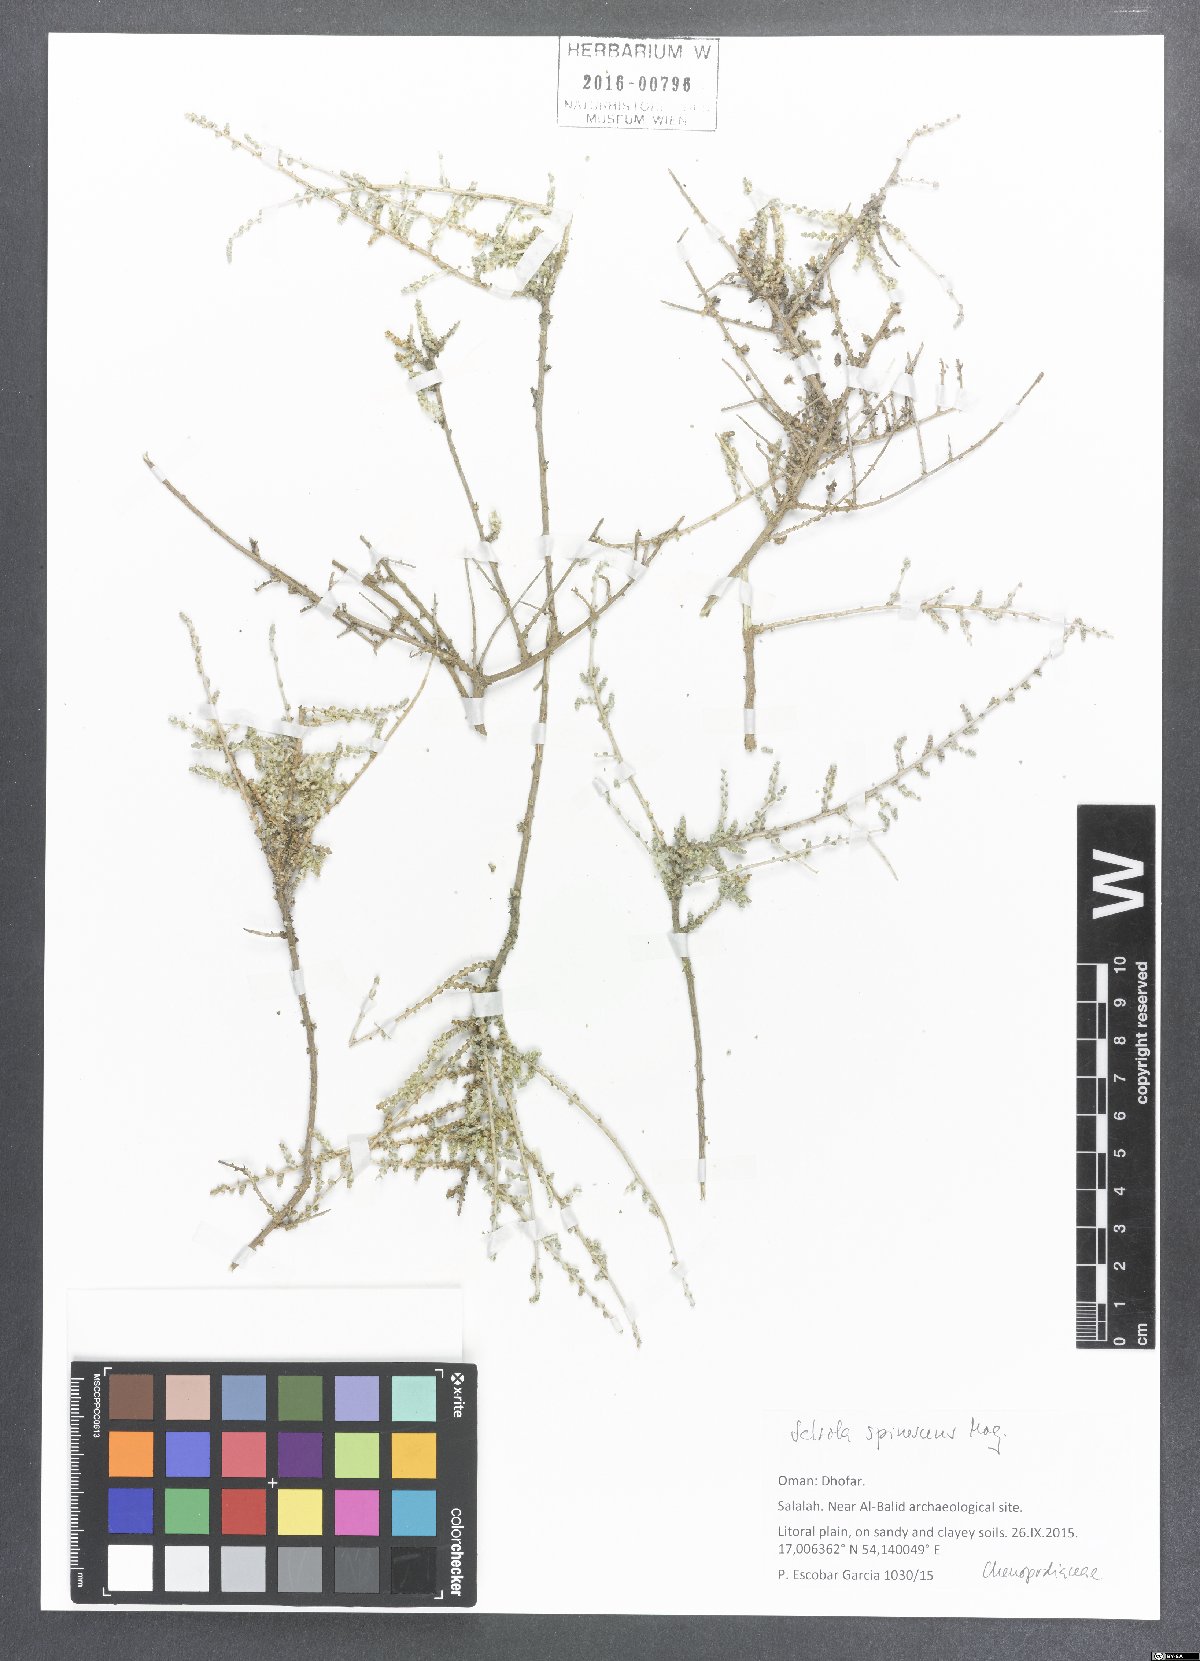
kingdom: Plantae
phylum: Tracheophyta
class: Magnoliopsida
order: Caryophyllales
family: Amaranthaceae
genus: Caroxylon
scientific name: Caroxylon spinescens
